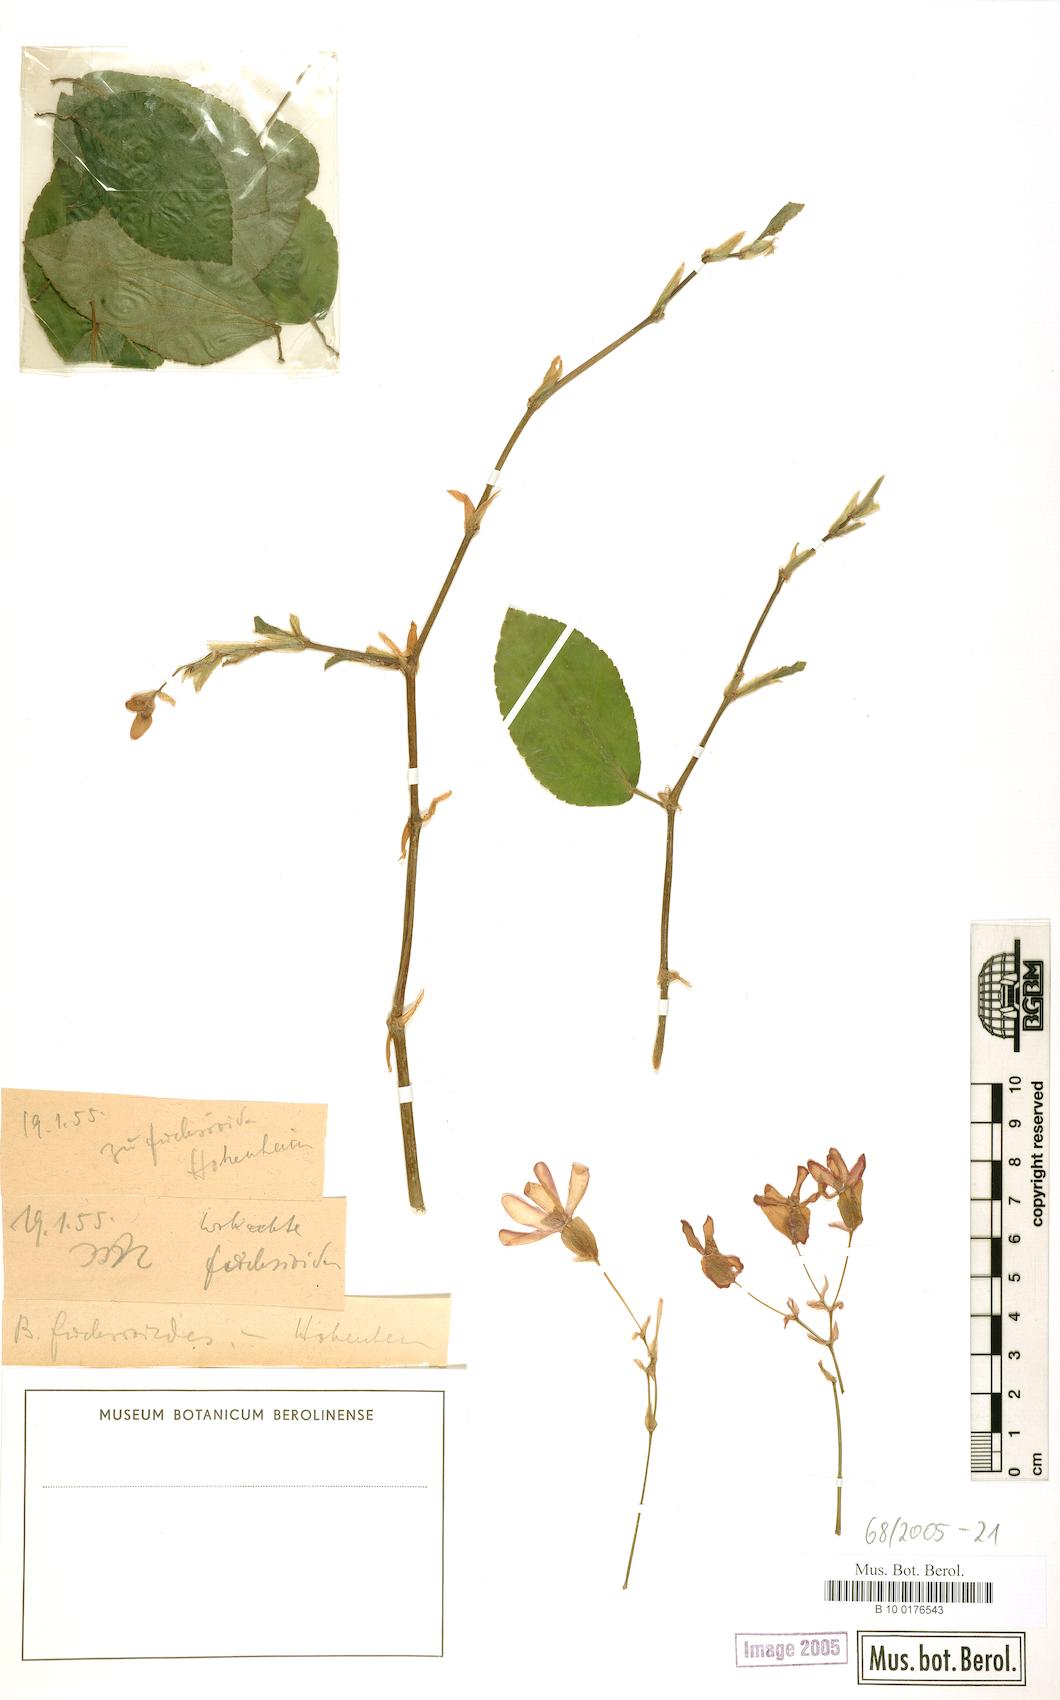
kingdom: Plantae
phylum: Tracheophyta
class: Magnoliopsida
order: Cucurbitales
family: Begoniaceae
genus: Begonia
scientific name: Begonia fuchsioides
